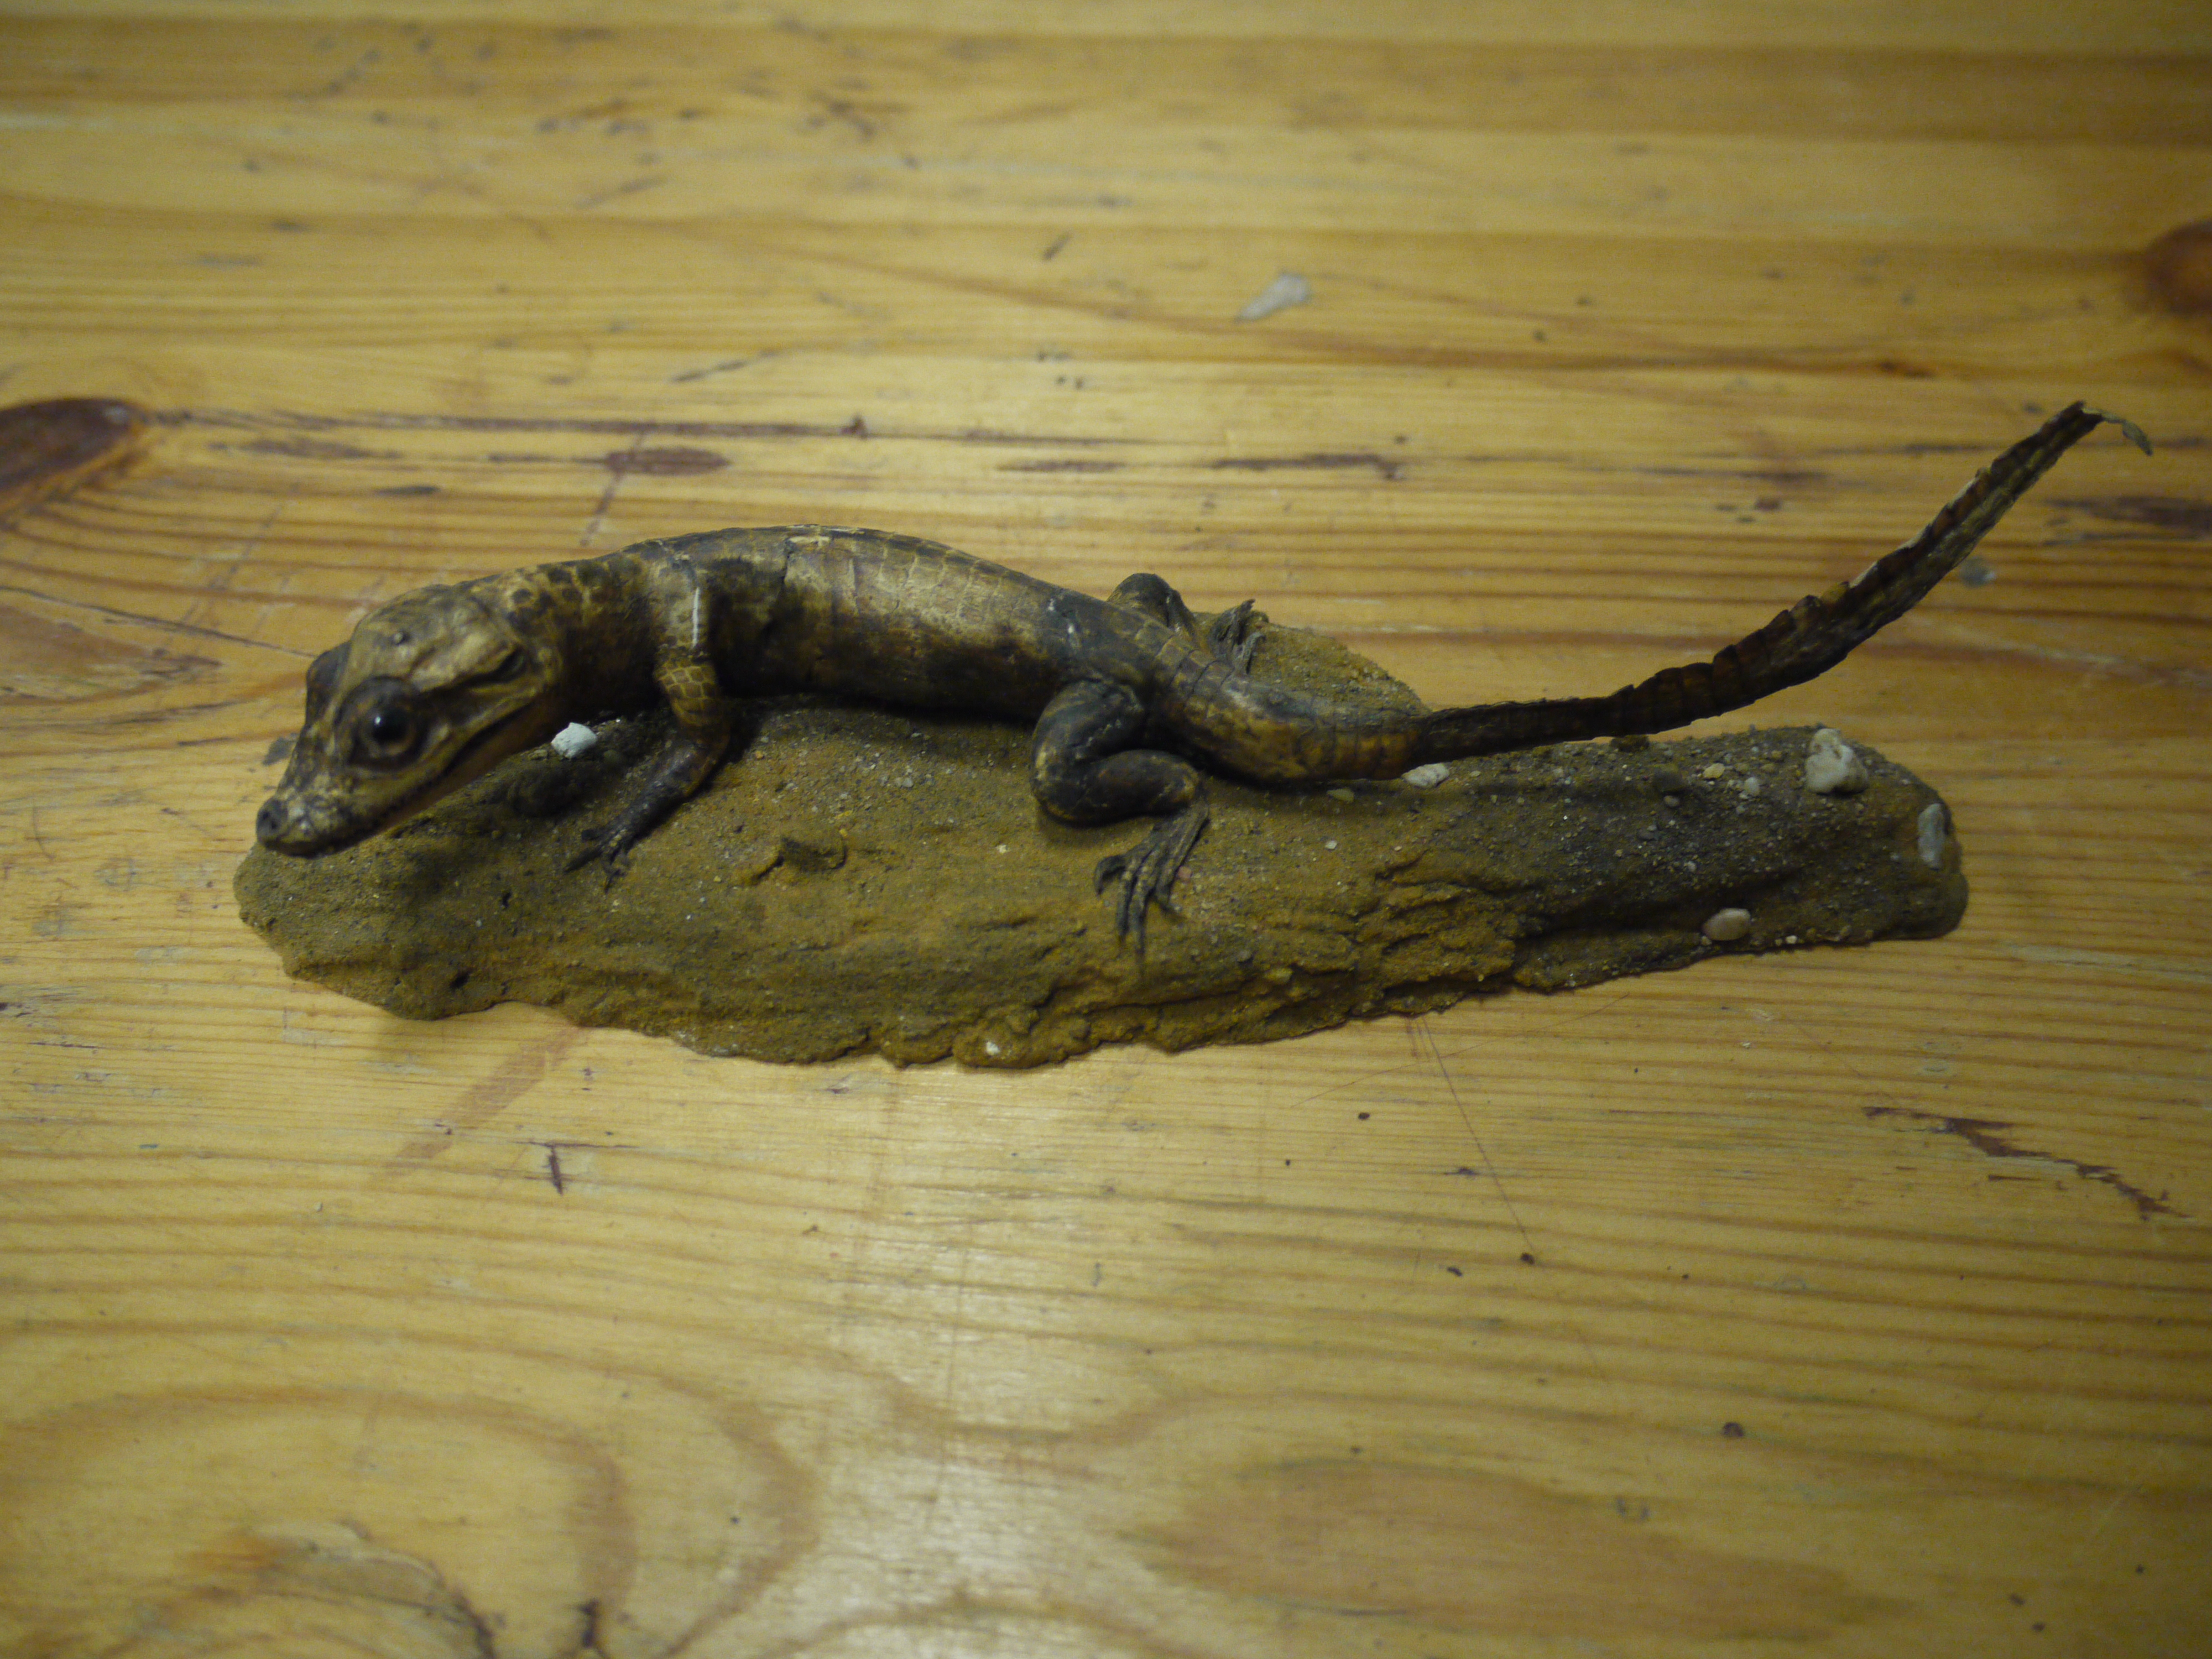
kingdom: Animalia
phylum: Chordata
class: Crocodylia
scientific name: Crocodylia
